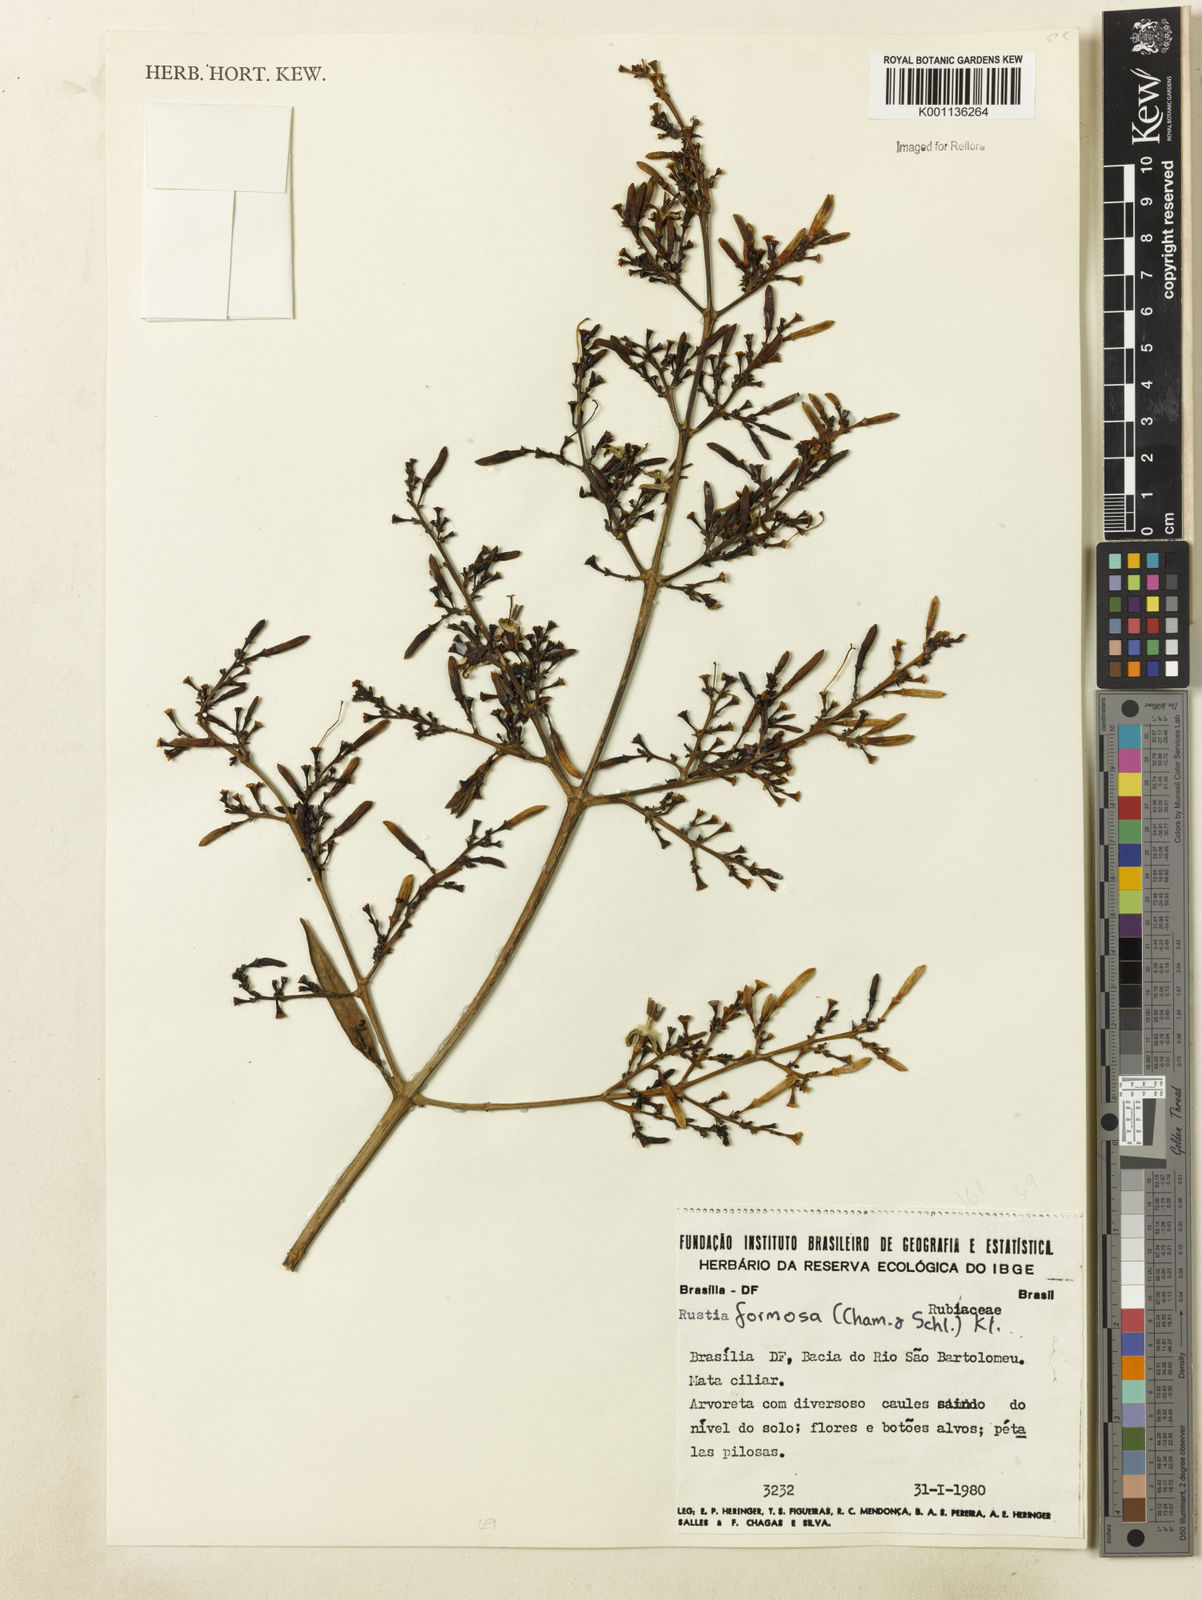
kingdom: Plantae
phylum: Tracheophyta
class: Magnoliopsida
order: Gentianales
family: Rubiaceae
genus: Rustia
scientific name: Rustia formosa
